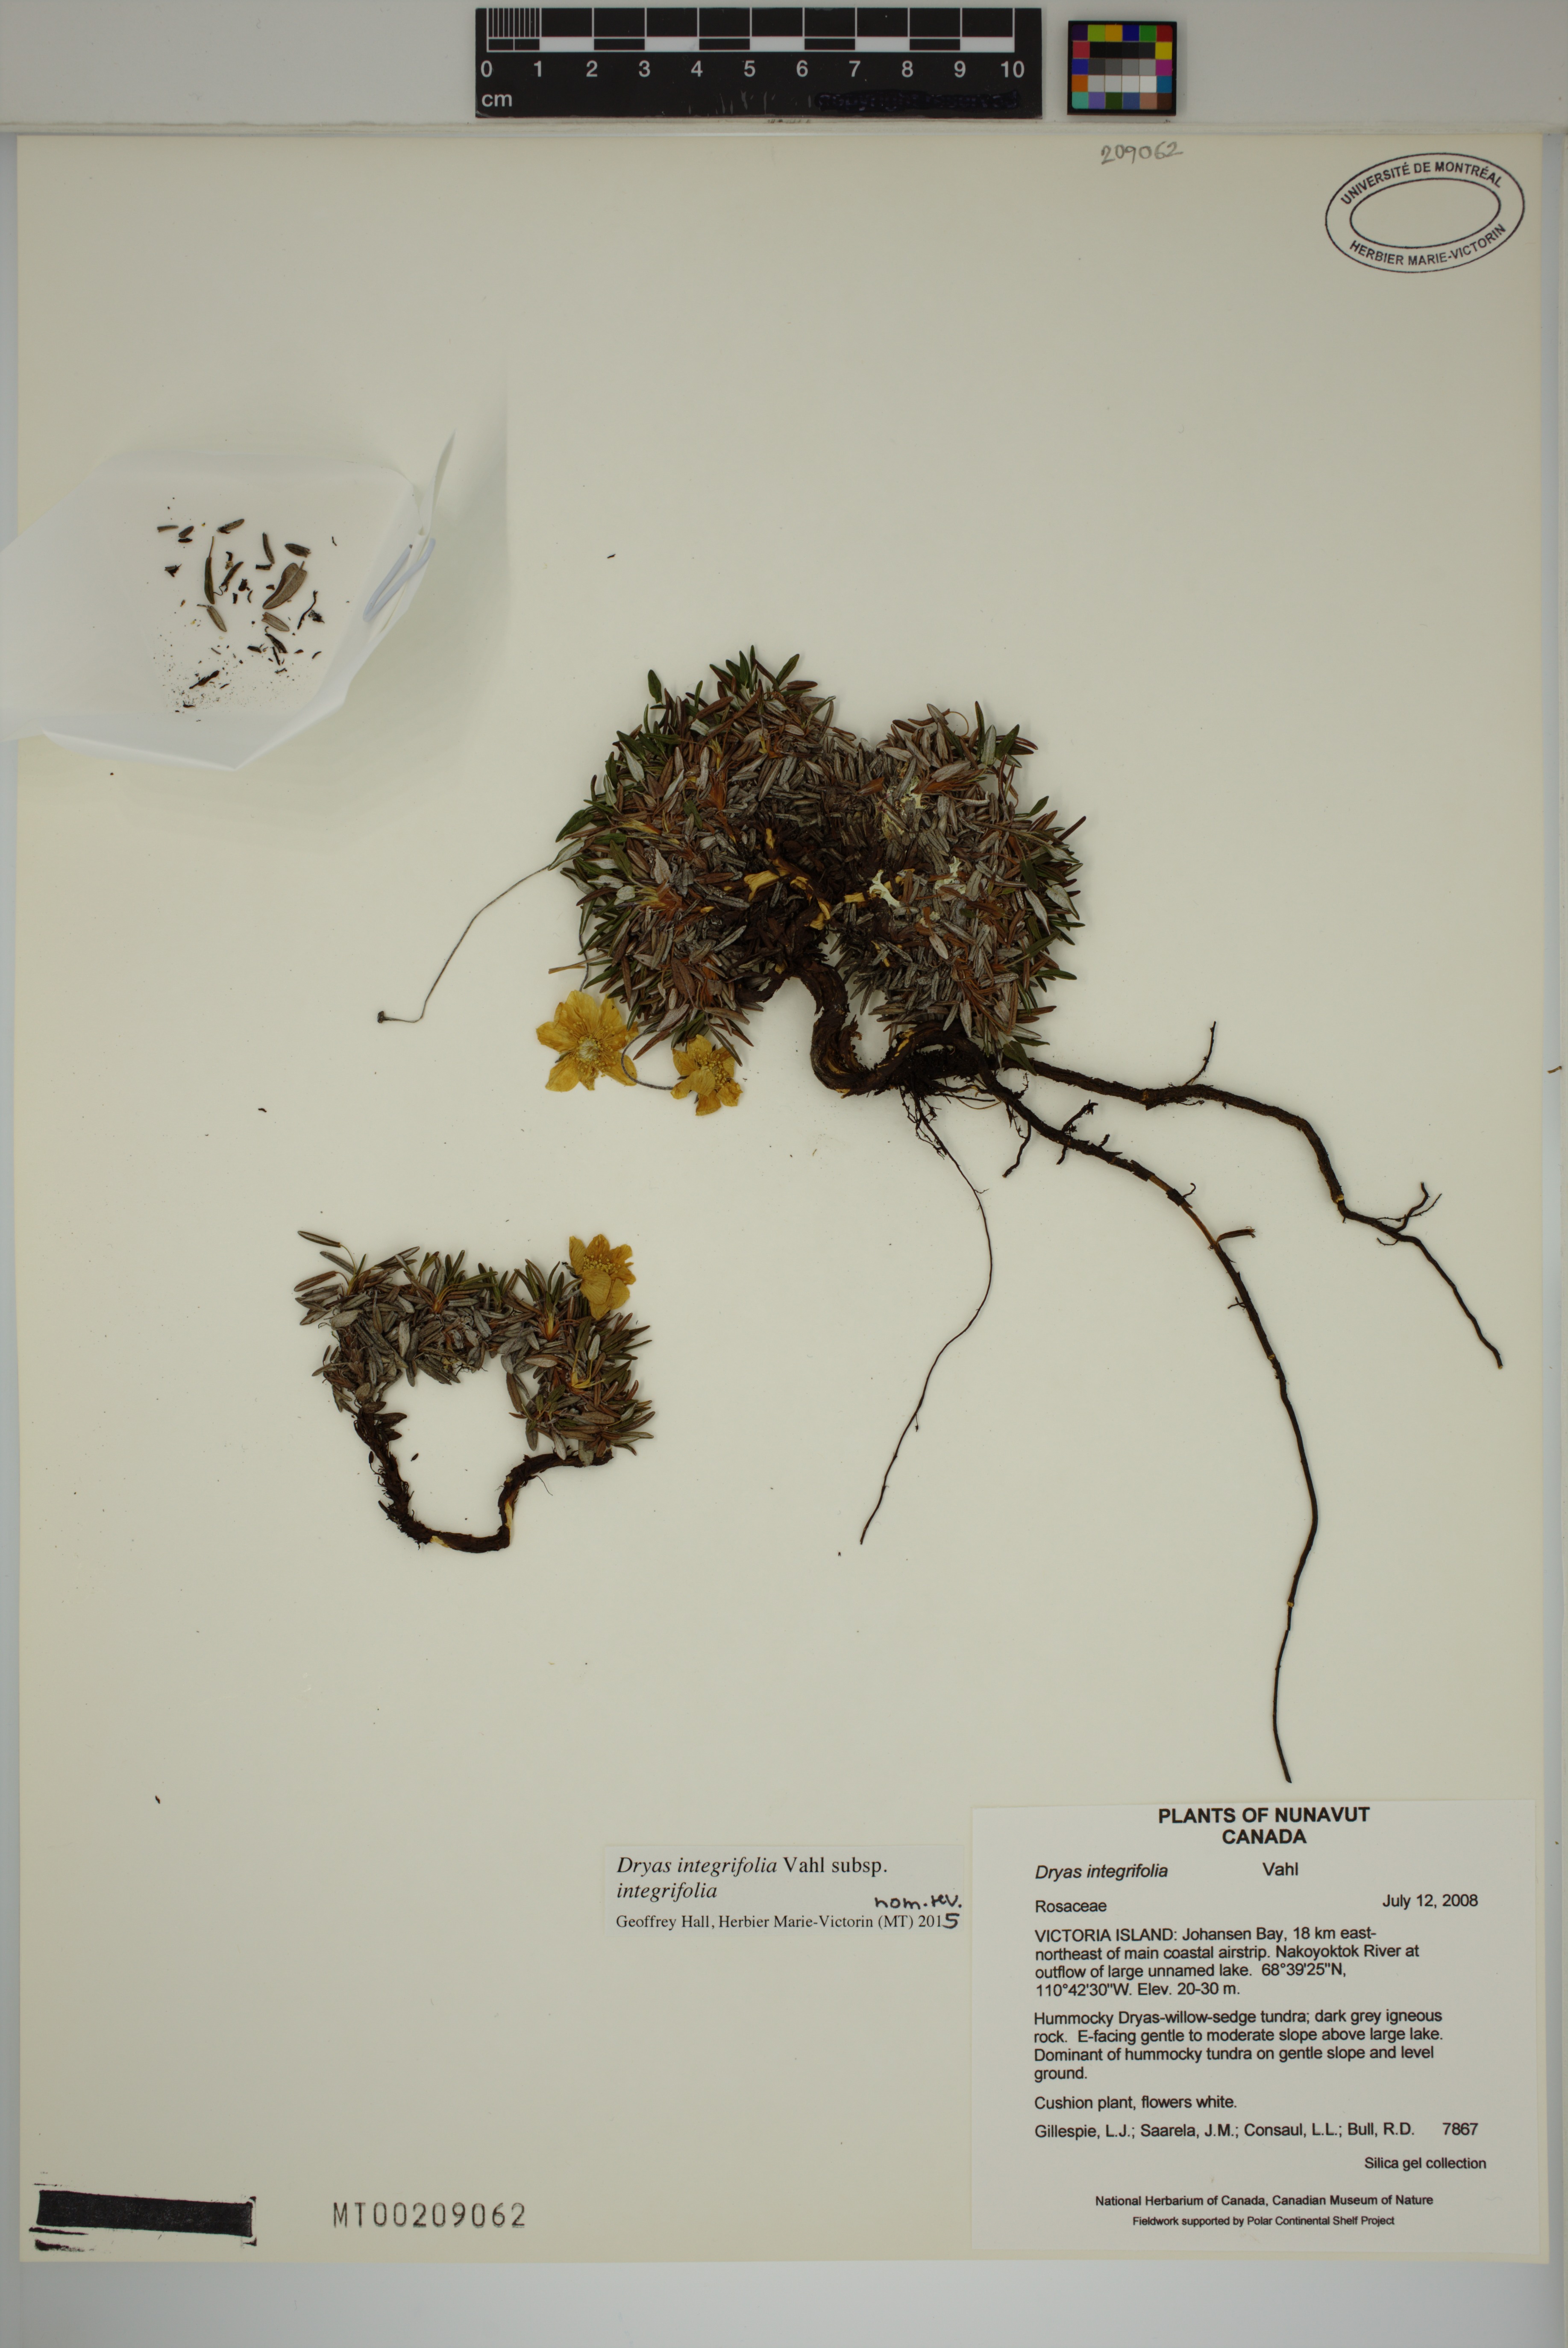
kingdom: Plantae
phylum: Tracheophyta
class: Magnoliopsida
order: Rosales
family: Rosaceae
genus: Dryas
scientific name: Dryas integrifolia
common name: Entire-leaved mountain avens
